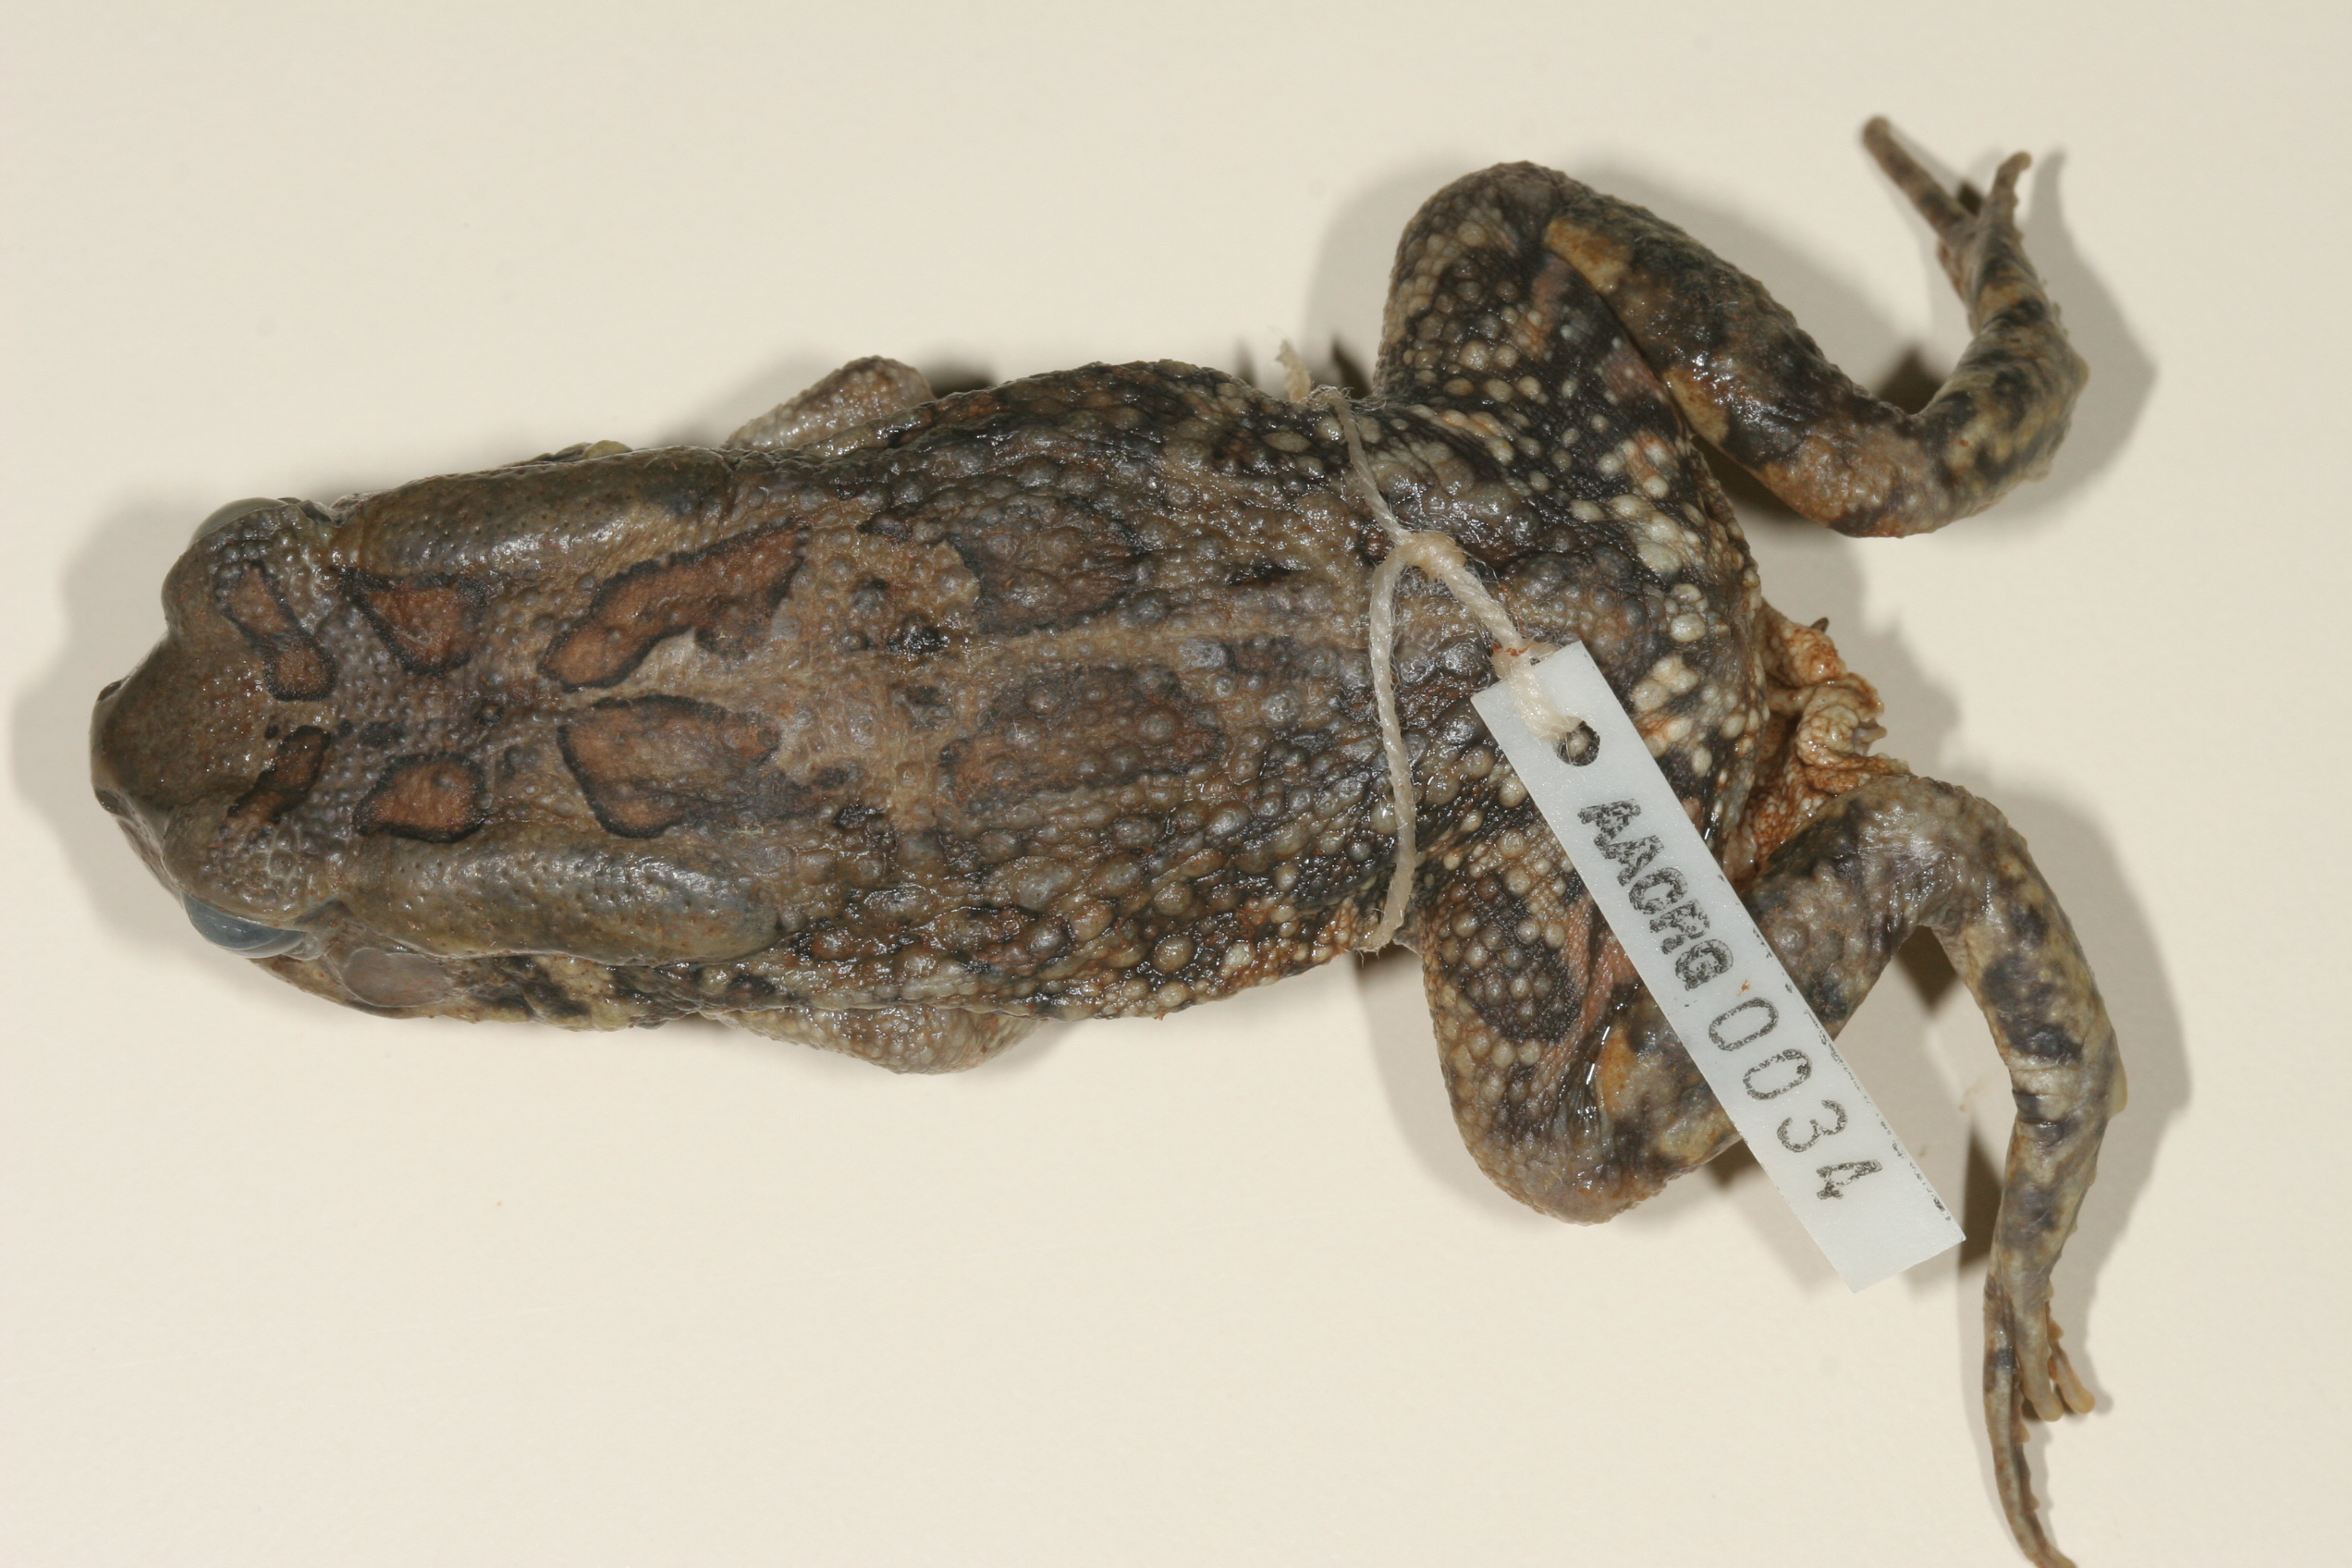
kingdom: Animalia
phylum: Chordata
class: Amphibia
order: Anura
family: Bufonidae
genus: Sclerophrys
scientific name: Sclerophrys garmani
